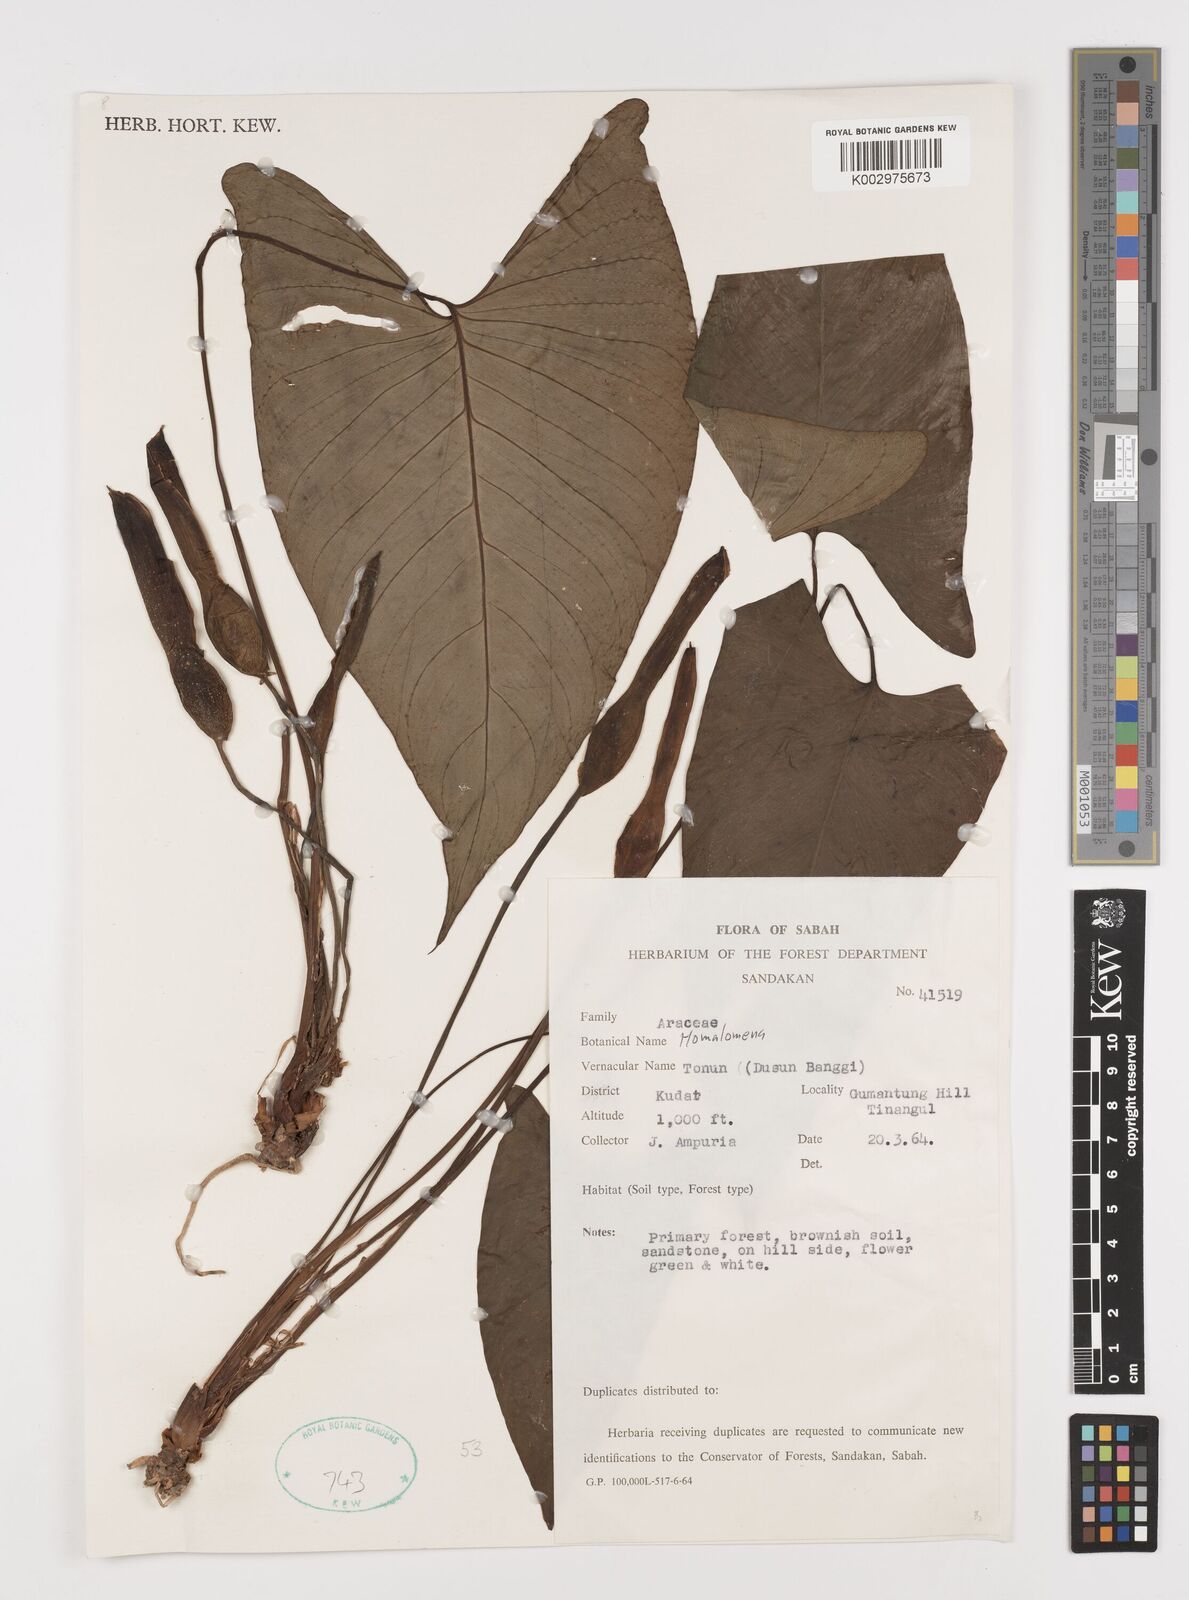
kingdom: Plantae
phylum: Tracheophyta
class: Liliopsida
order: Alismatales
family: Araceae
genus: Homalomena
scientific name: Homalomena
